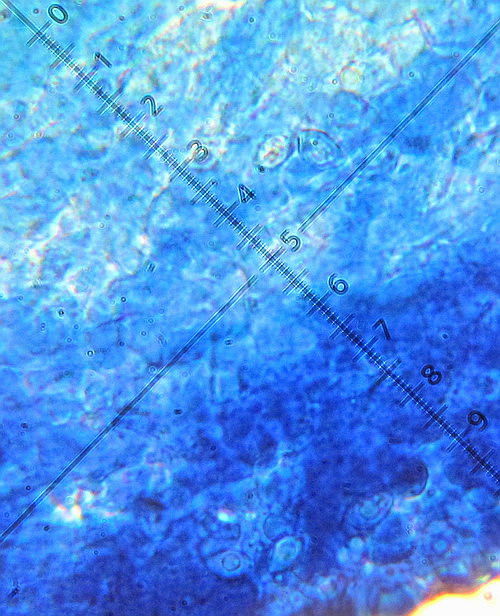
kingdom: Fungi
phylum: Basidiomycota
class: Agaricomycetes
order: Agaricales
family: Stephanosporaceae
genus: Lindtneria
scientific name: Lindtneria leucobryophila
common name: bleg citrushinde
